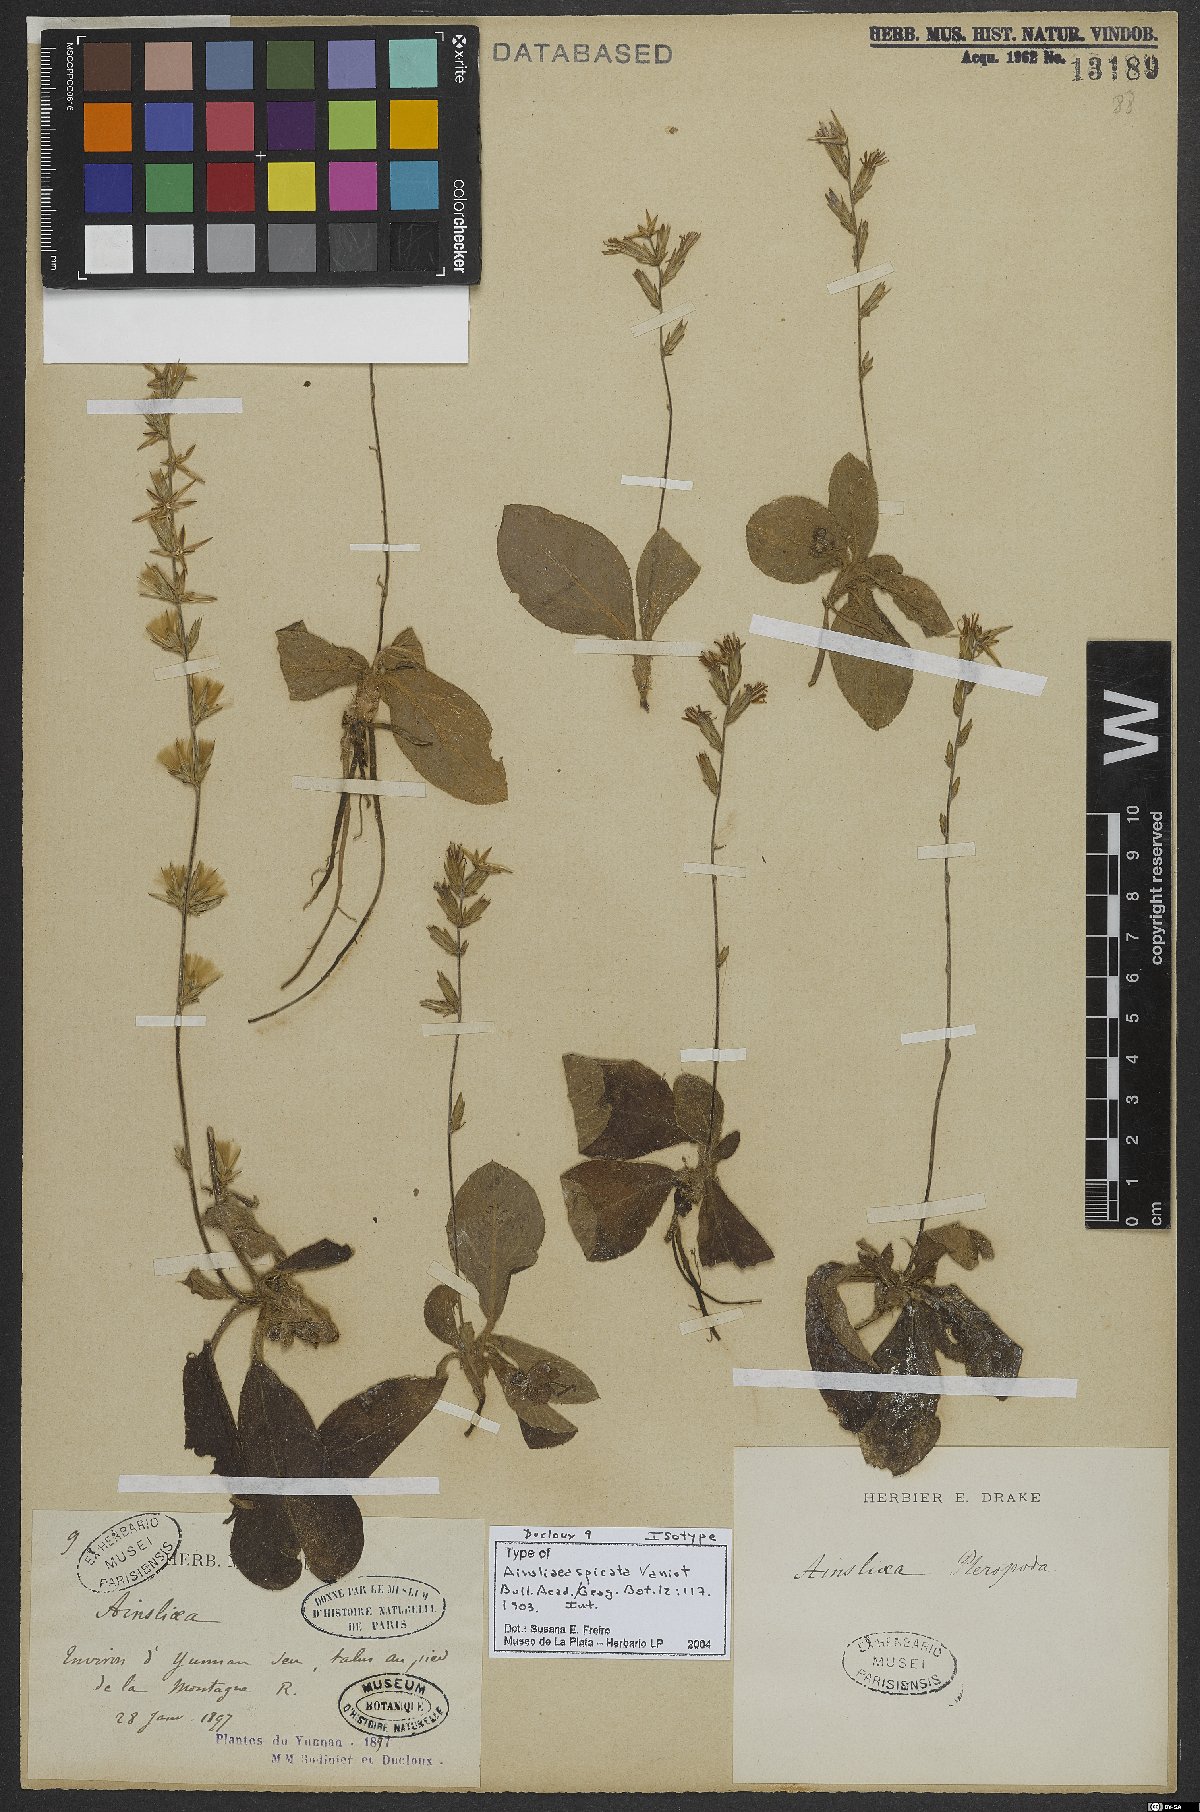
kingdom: Plantae
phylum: Tracheophyta
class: Magnoliopsida
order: Asterales
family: Asteraceae
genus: Ainsliaea
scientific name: Ainsliaea spicata
